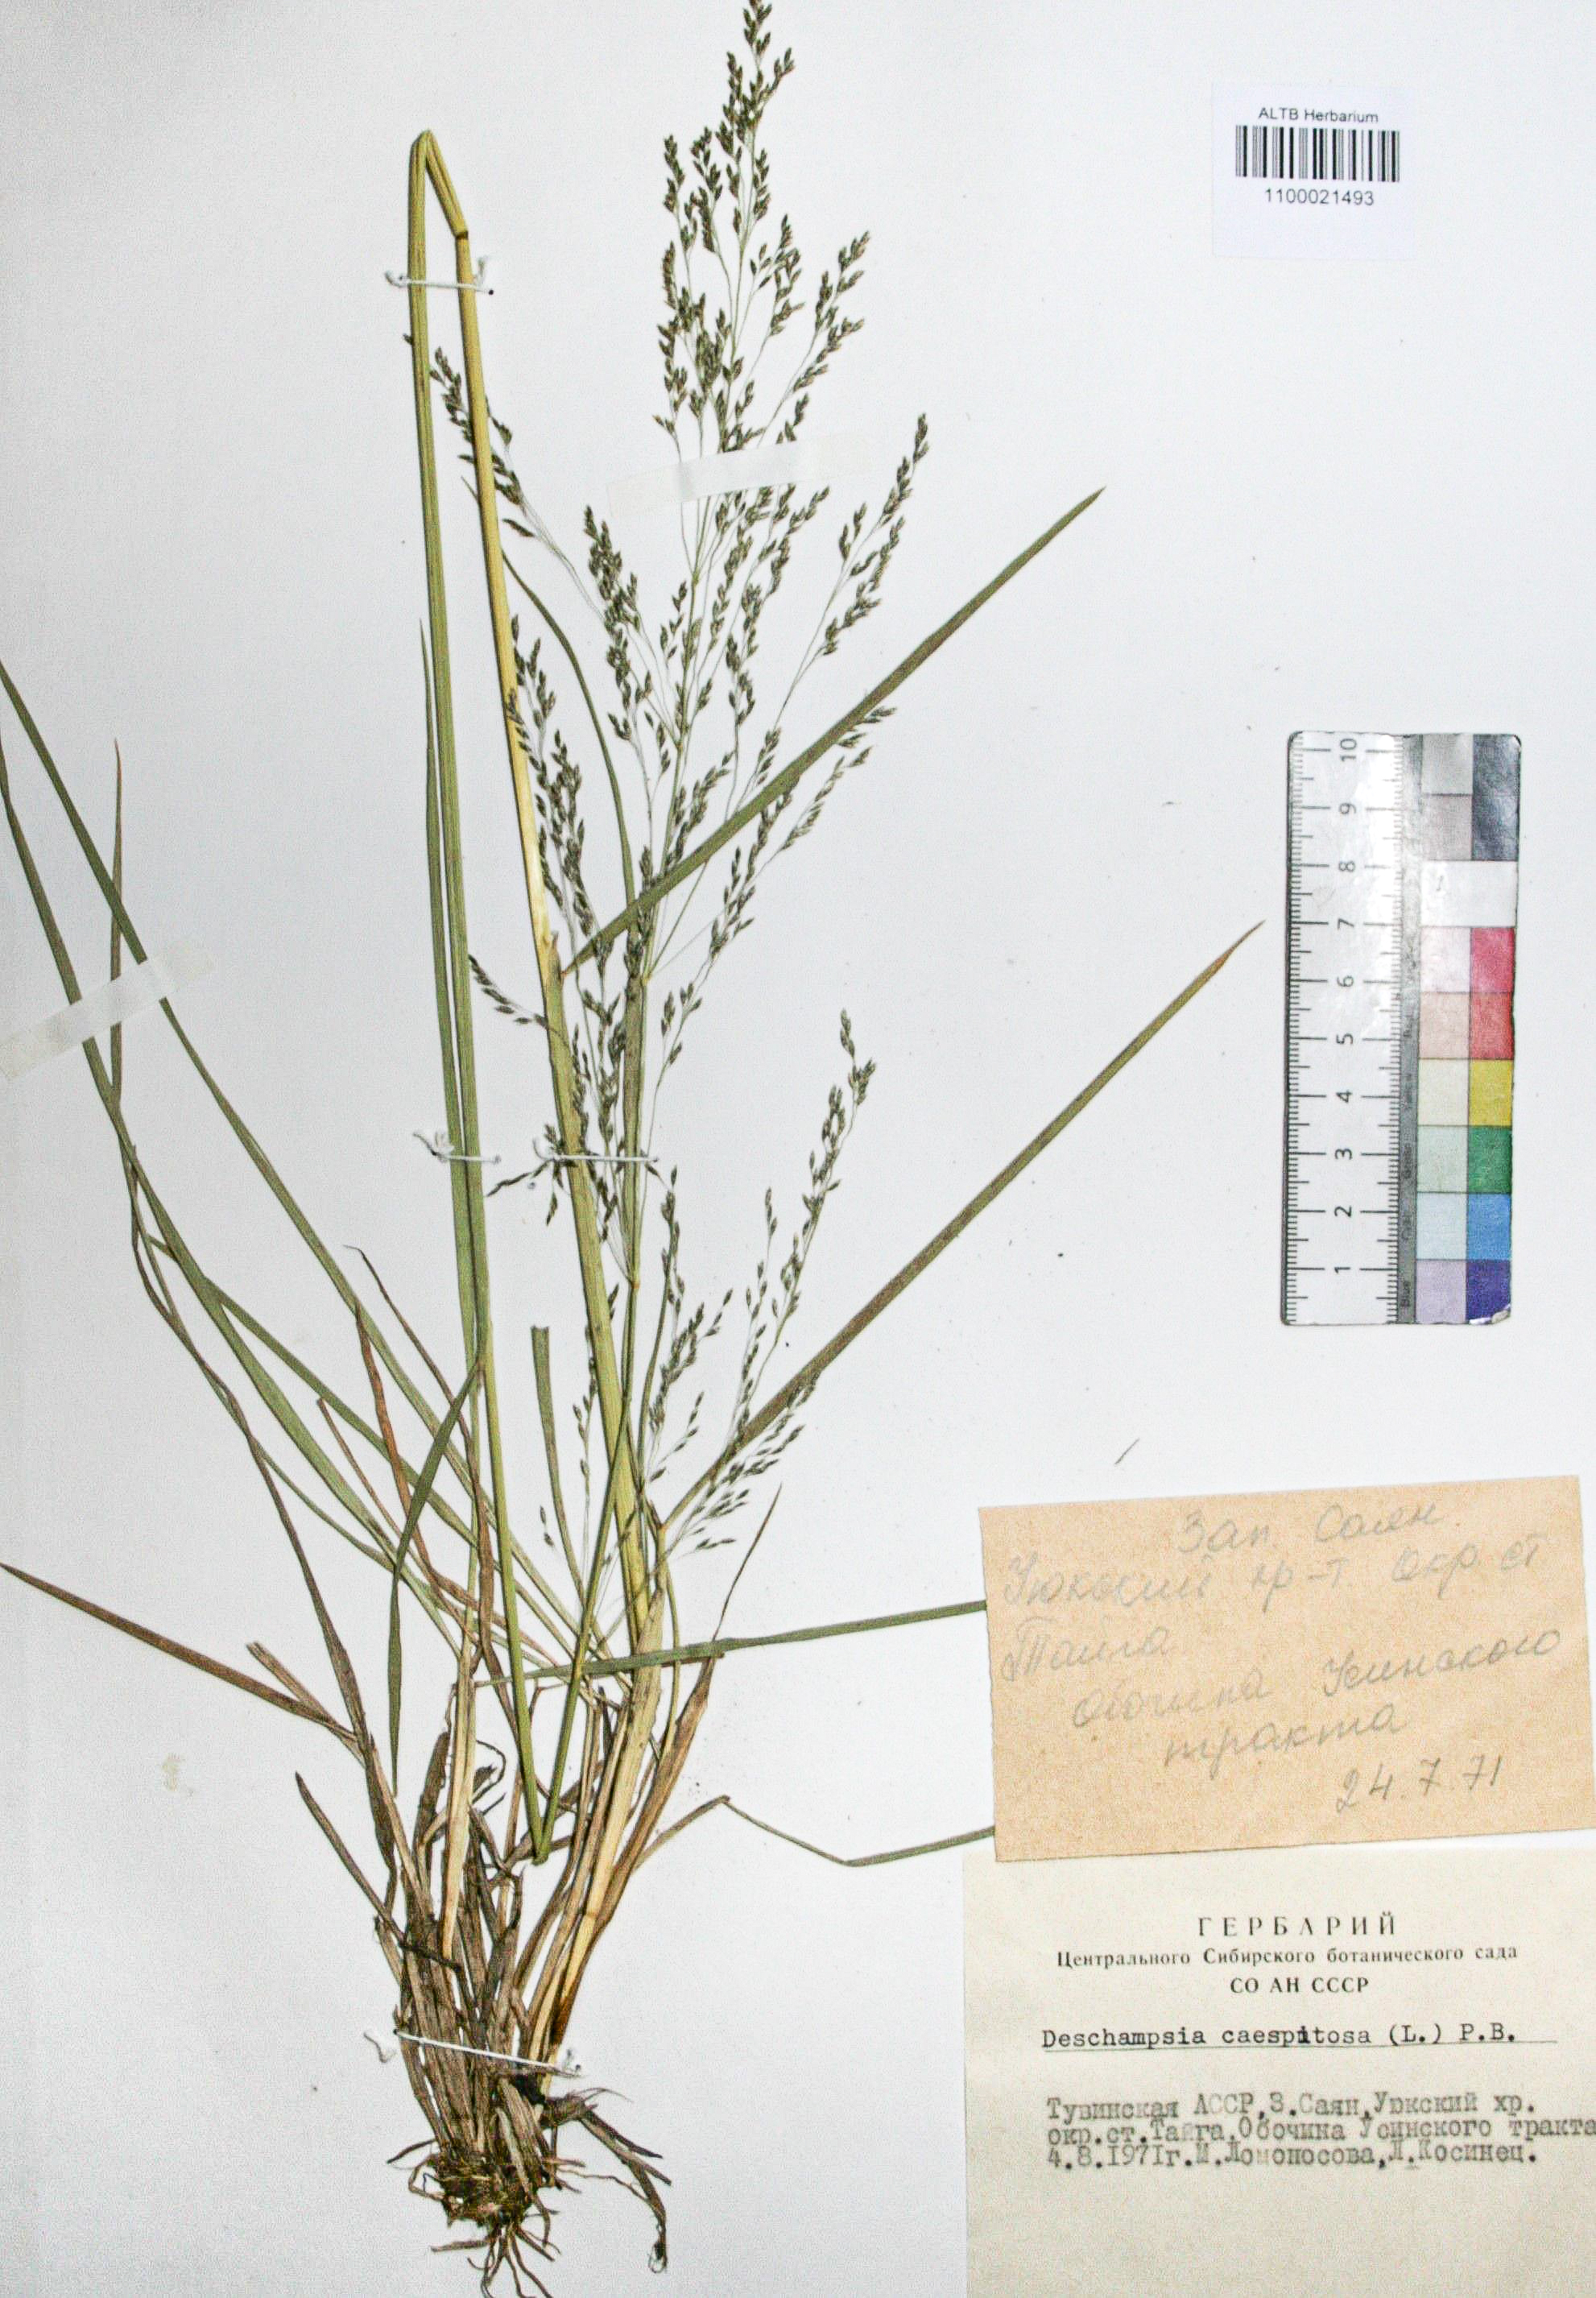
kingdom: Plantae
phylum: Tracheophyta
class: Liliopsida
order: Poales
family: Poaceae
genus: Deschampsia
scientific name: Deschampsia cespitosa
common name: Tufted hair-grass
